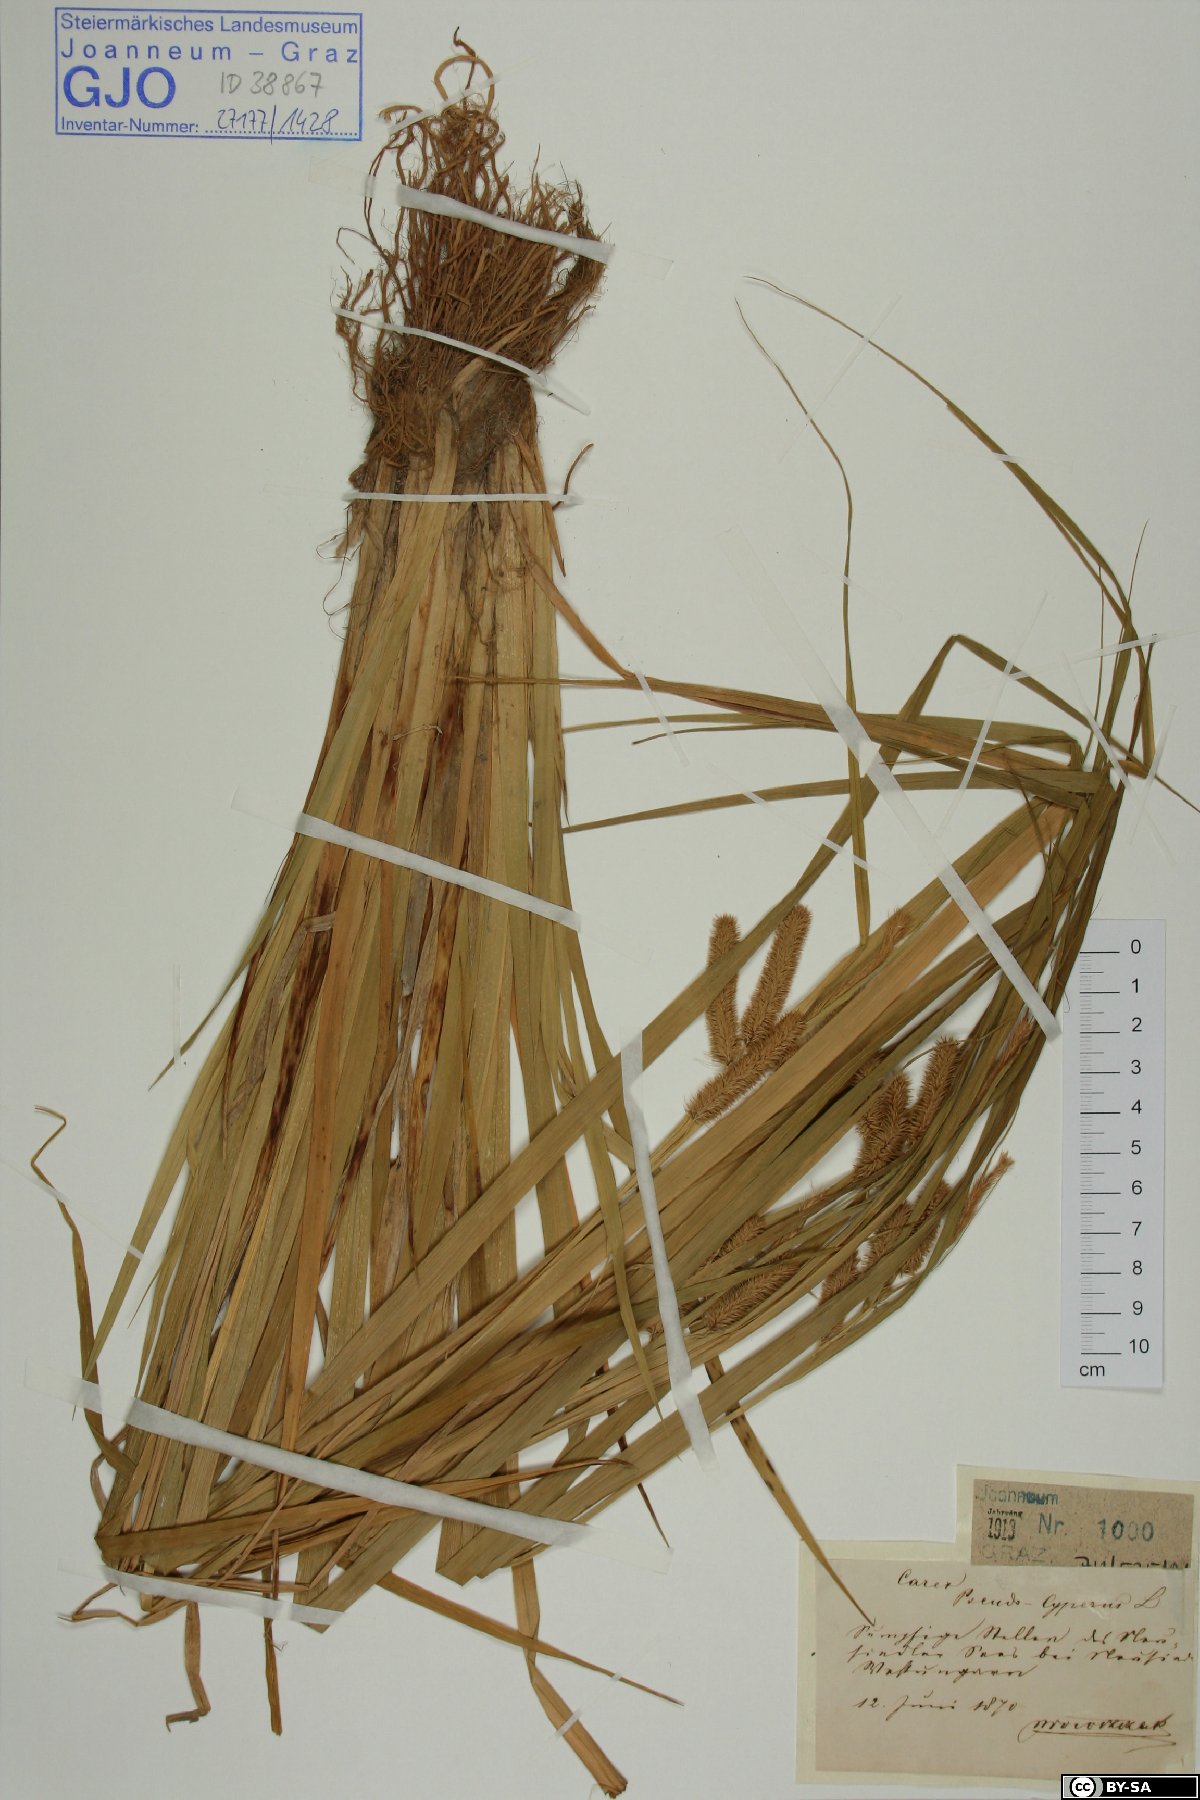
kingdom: Plantae
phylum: Tracheophyta
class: Liliopsida
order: Poales
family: Cyperaceae
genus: Carex
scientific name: Carex pseudocyperus
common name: Cyperus sedge
